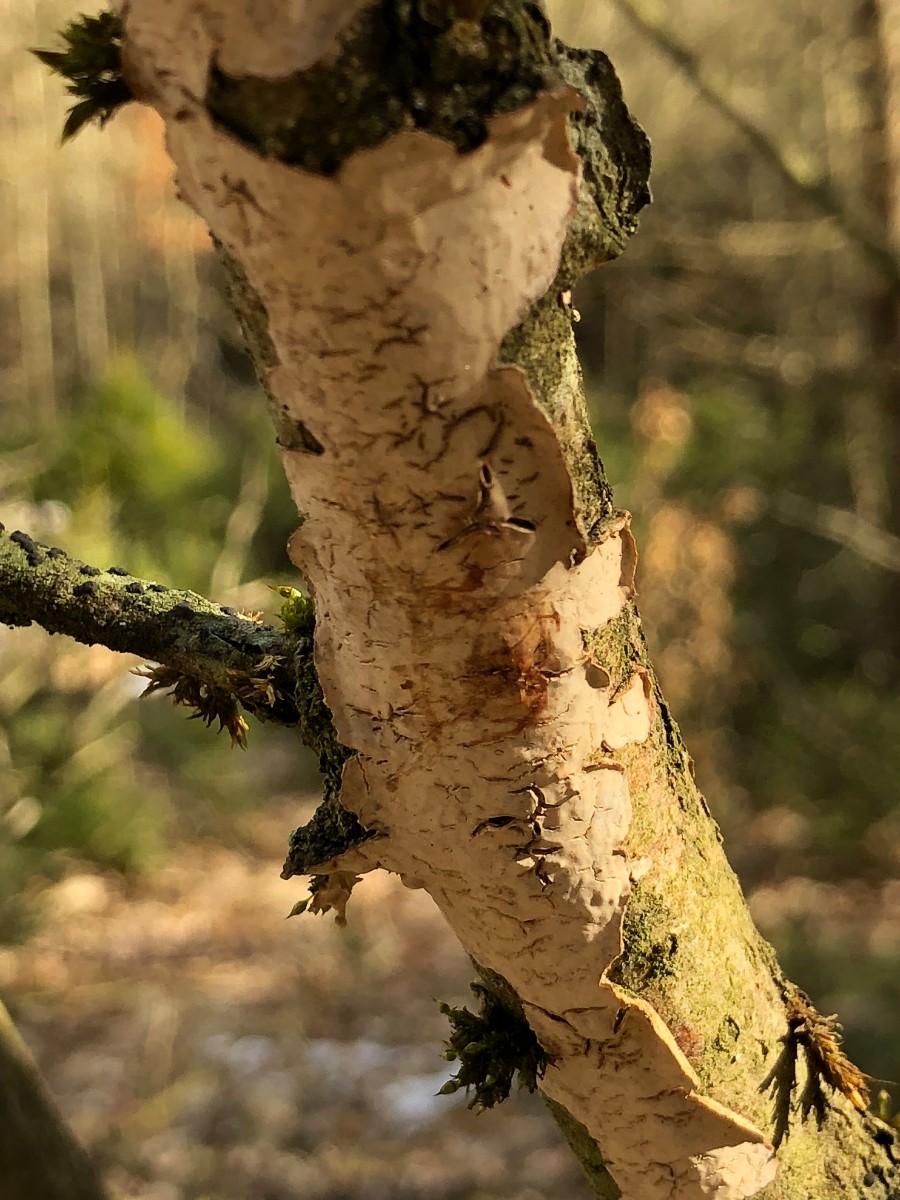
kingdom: Fungi
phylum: Basidiomycota
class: Agaricomycetes
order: Russulales
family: Stereaceae
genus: Stereum
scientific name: Stereum rugosum
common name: rynket lædersvamp
